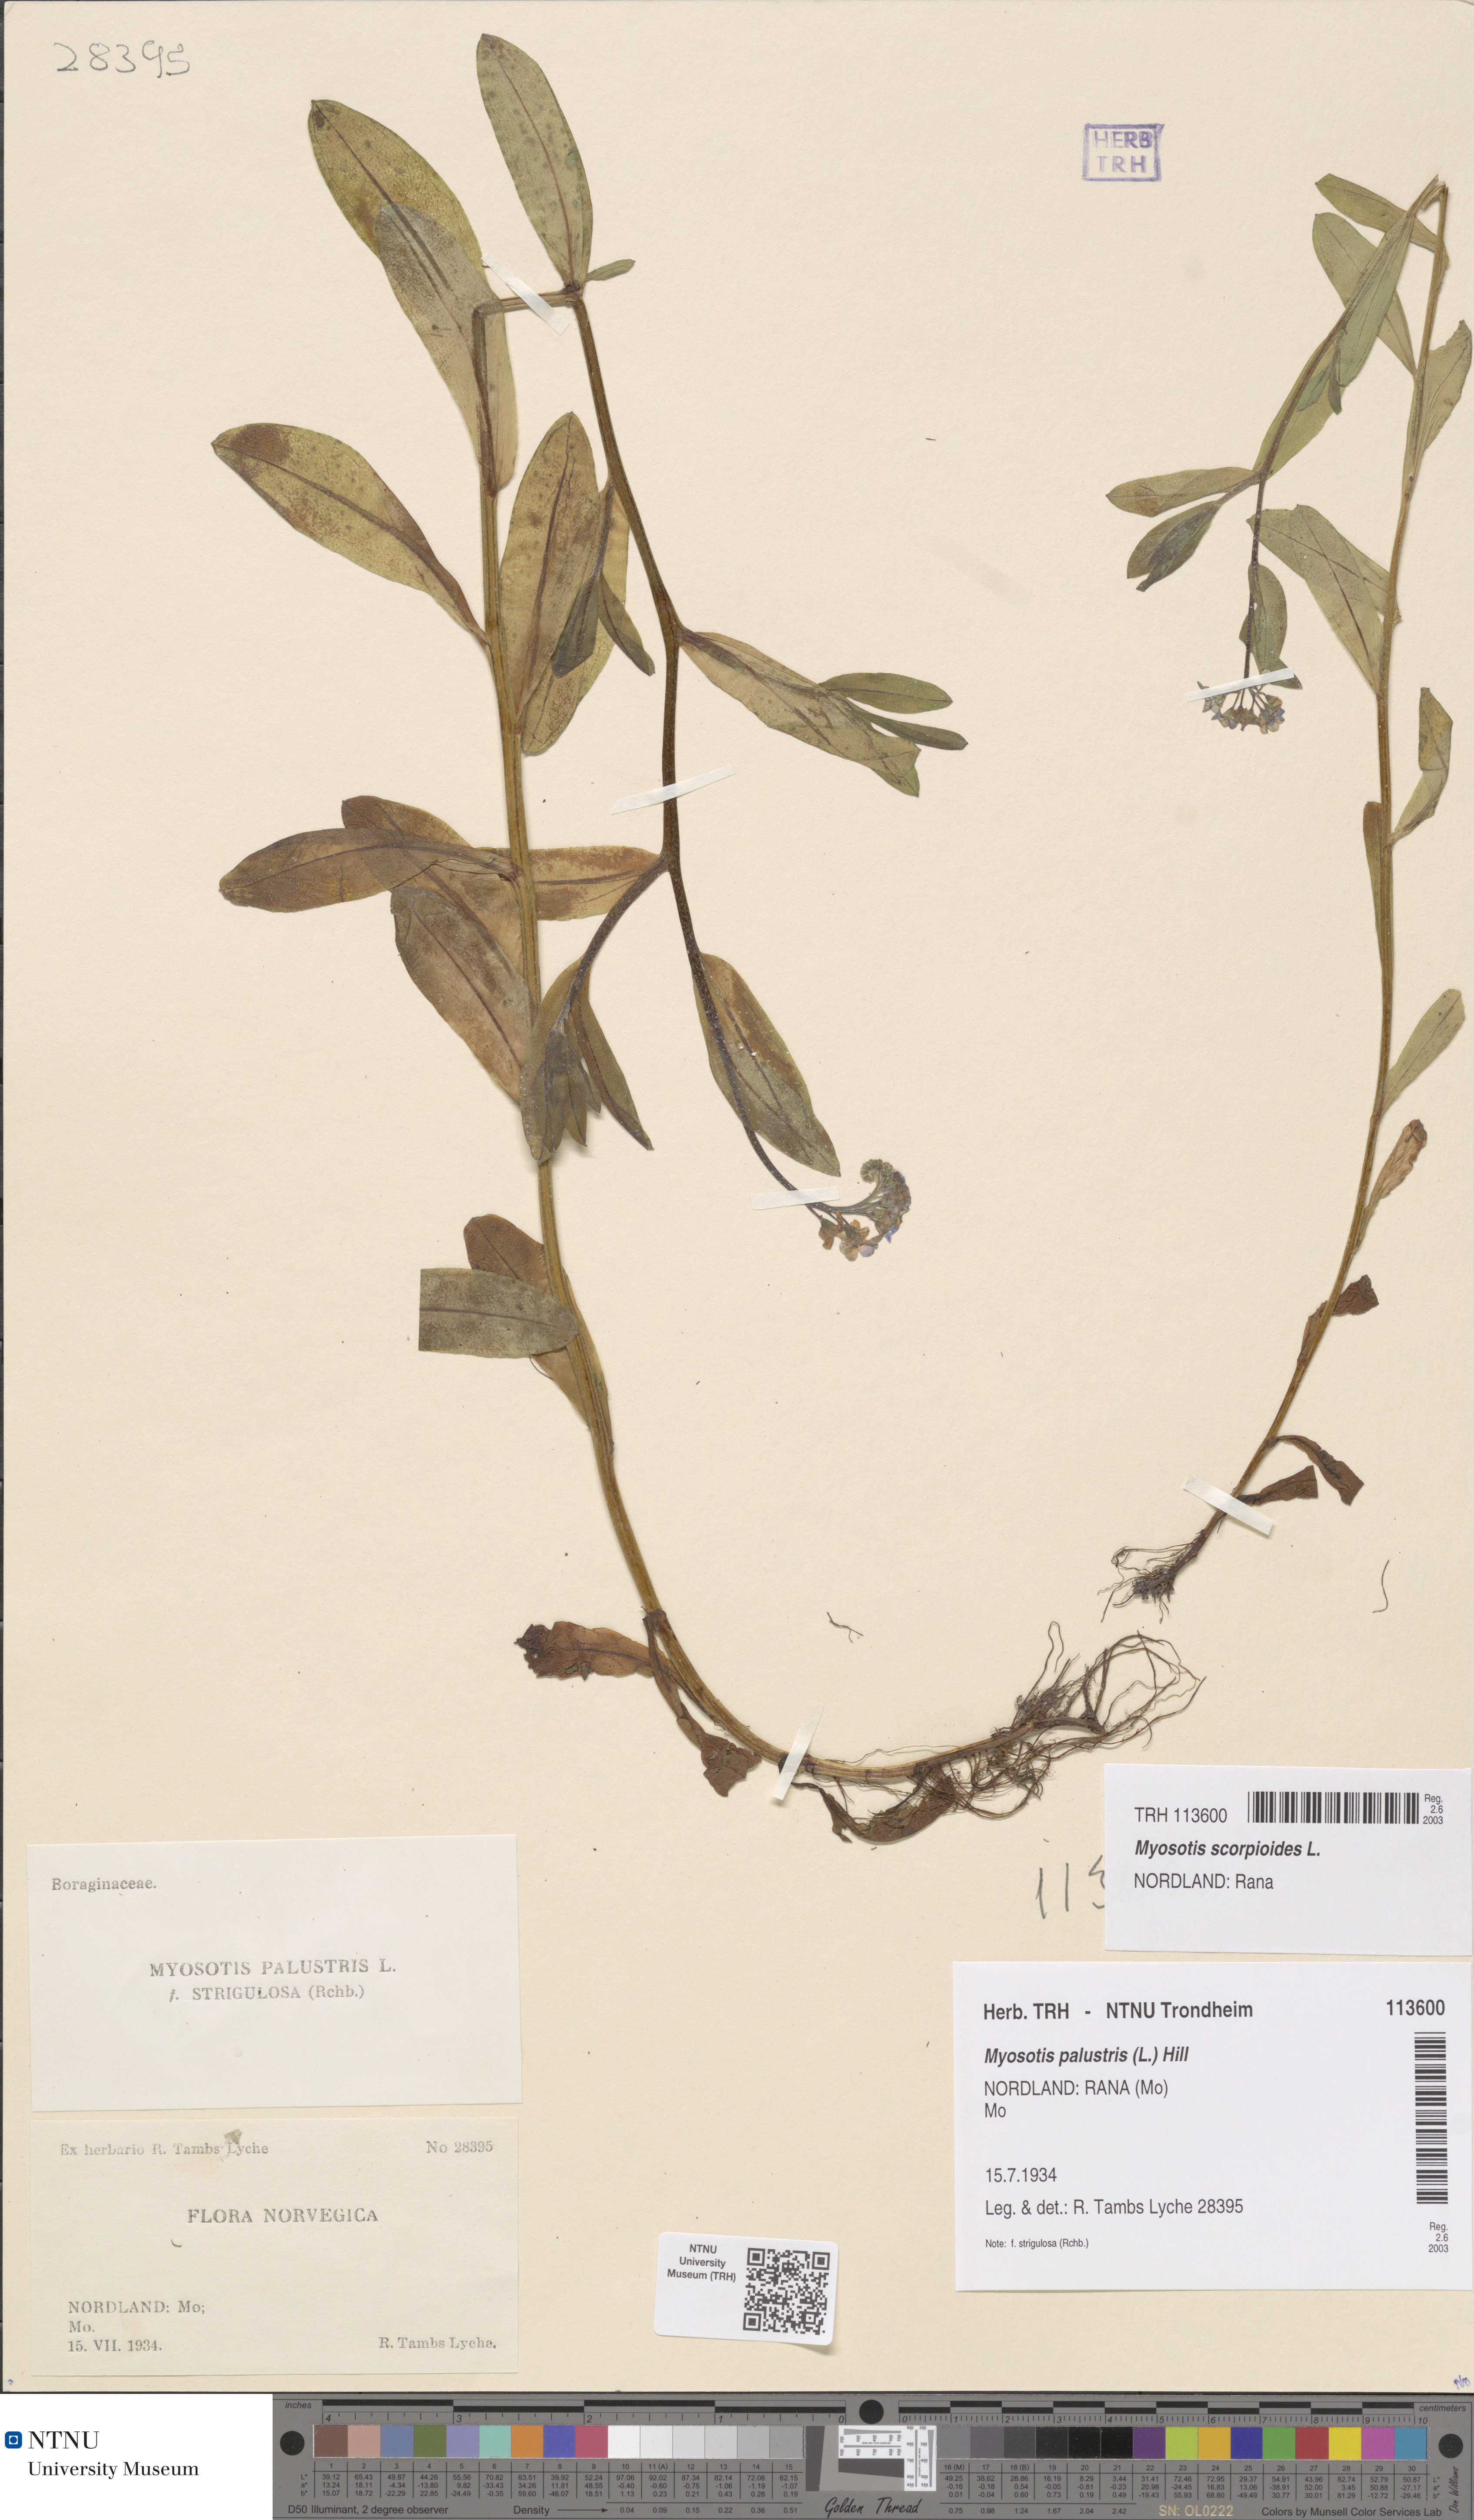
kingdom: Plantae
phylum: Tracheophyta
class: Magnoliopsida
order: Boraginales
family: Boraginaceae
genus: Myosotis
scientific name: Myosotis scorpioides
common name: Water forget-me-not
